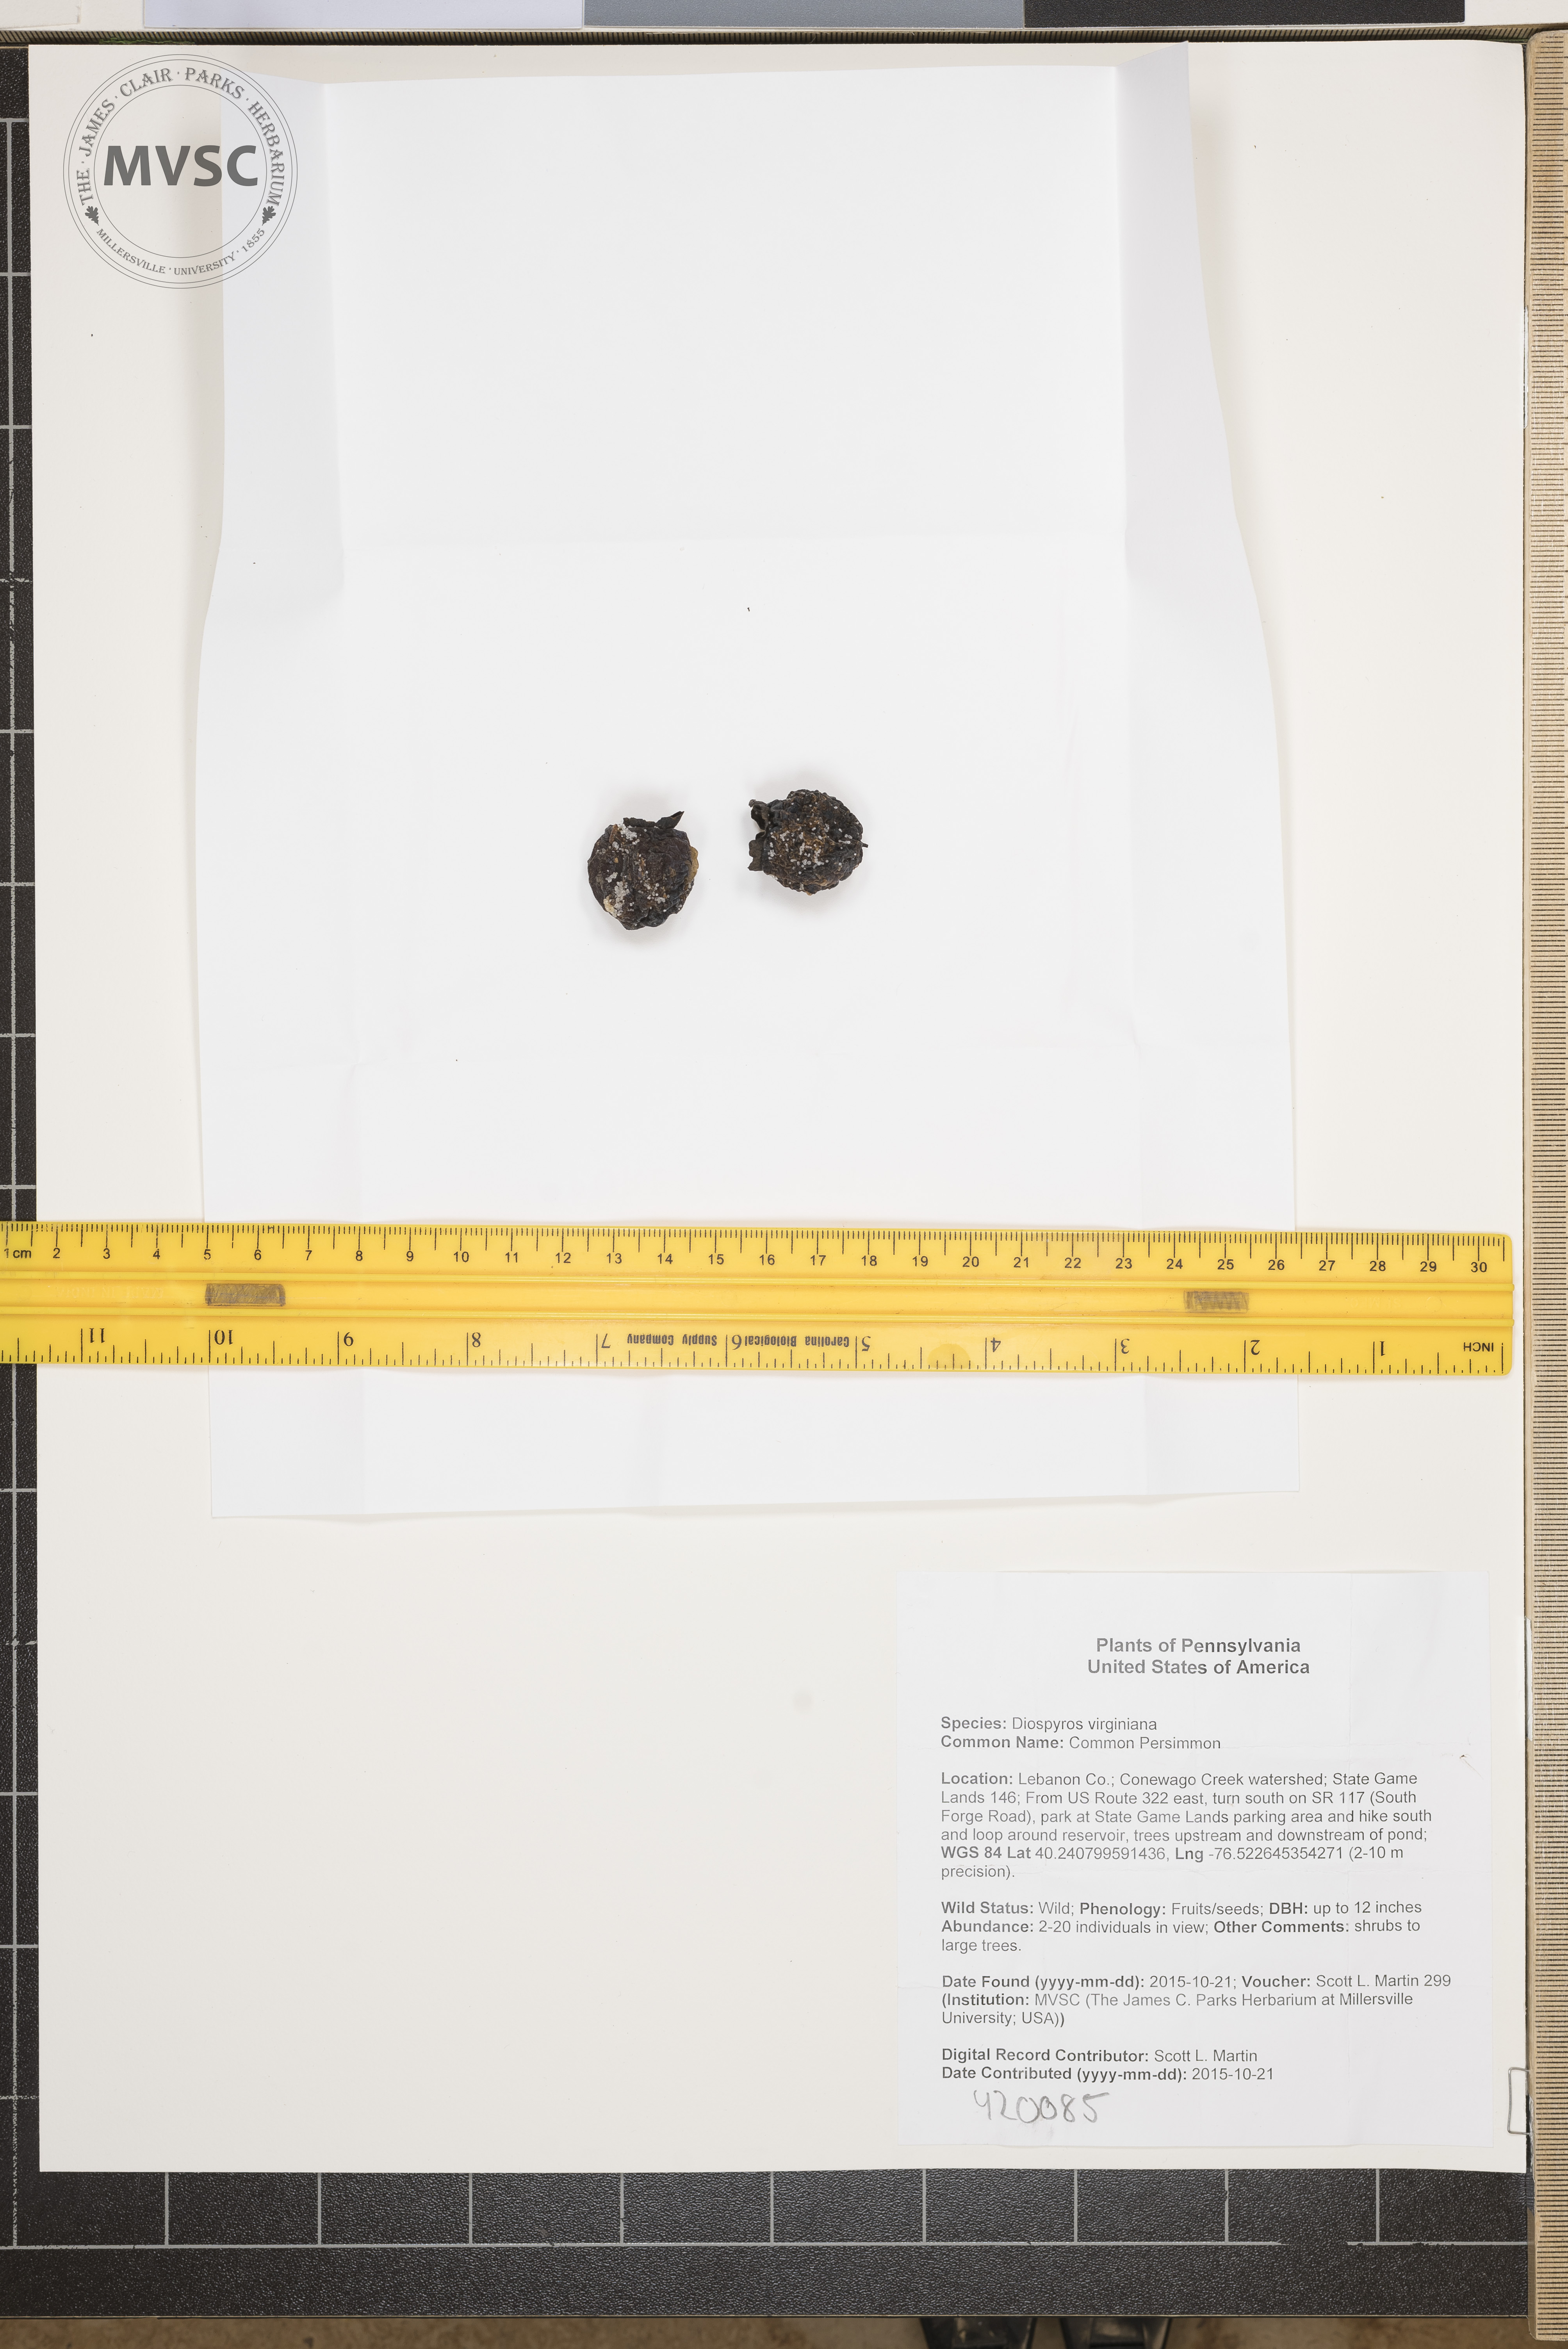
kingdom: Plantae
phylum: Tracheophyta
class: Magnoliopsida
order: Ericales
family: Ebenaceae
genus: Diospyros
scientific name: Diospyros virginiana
